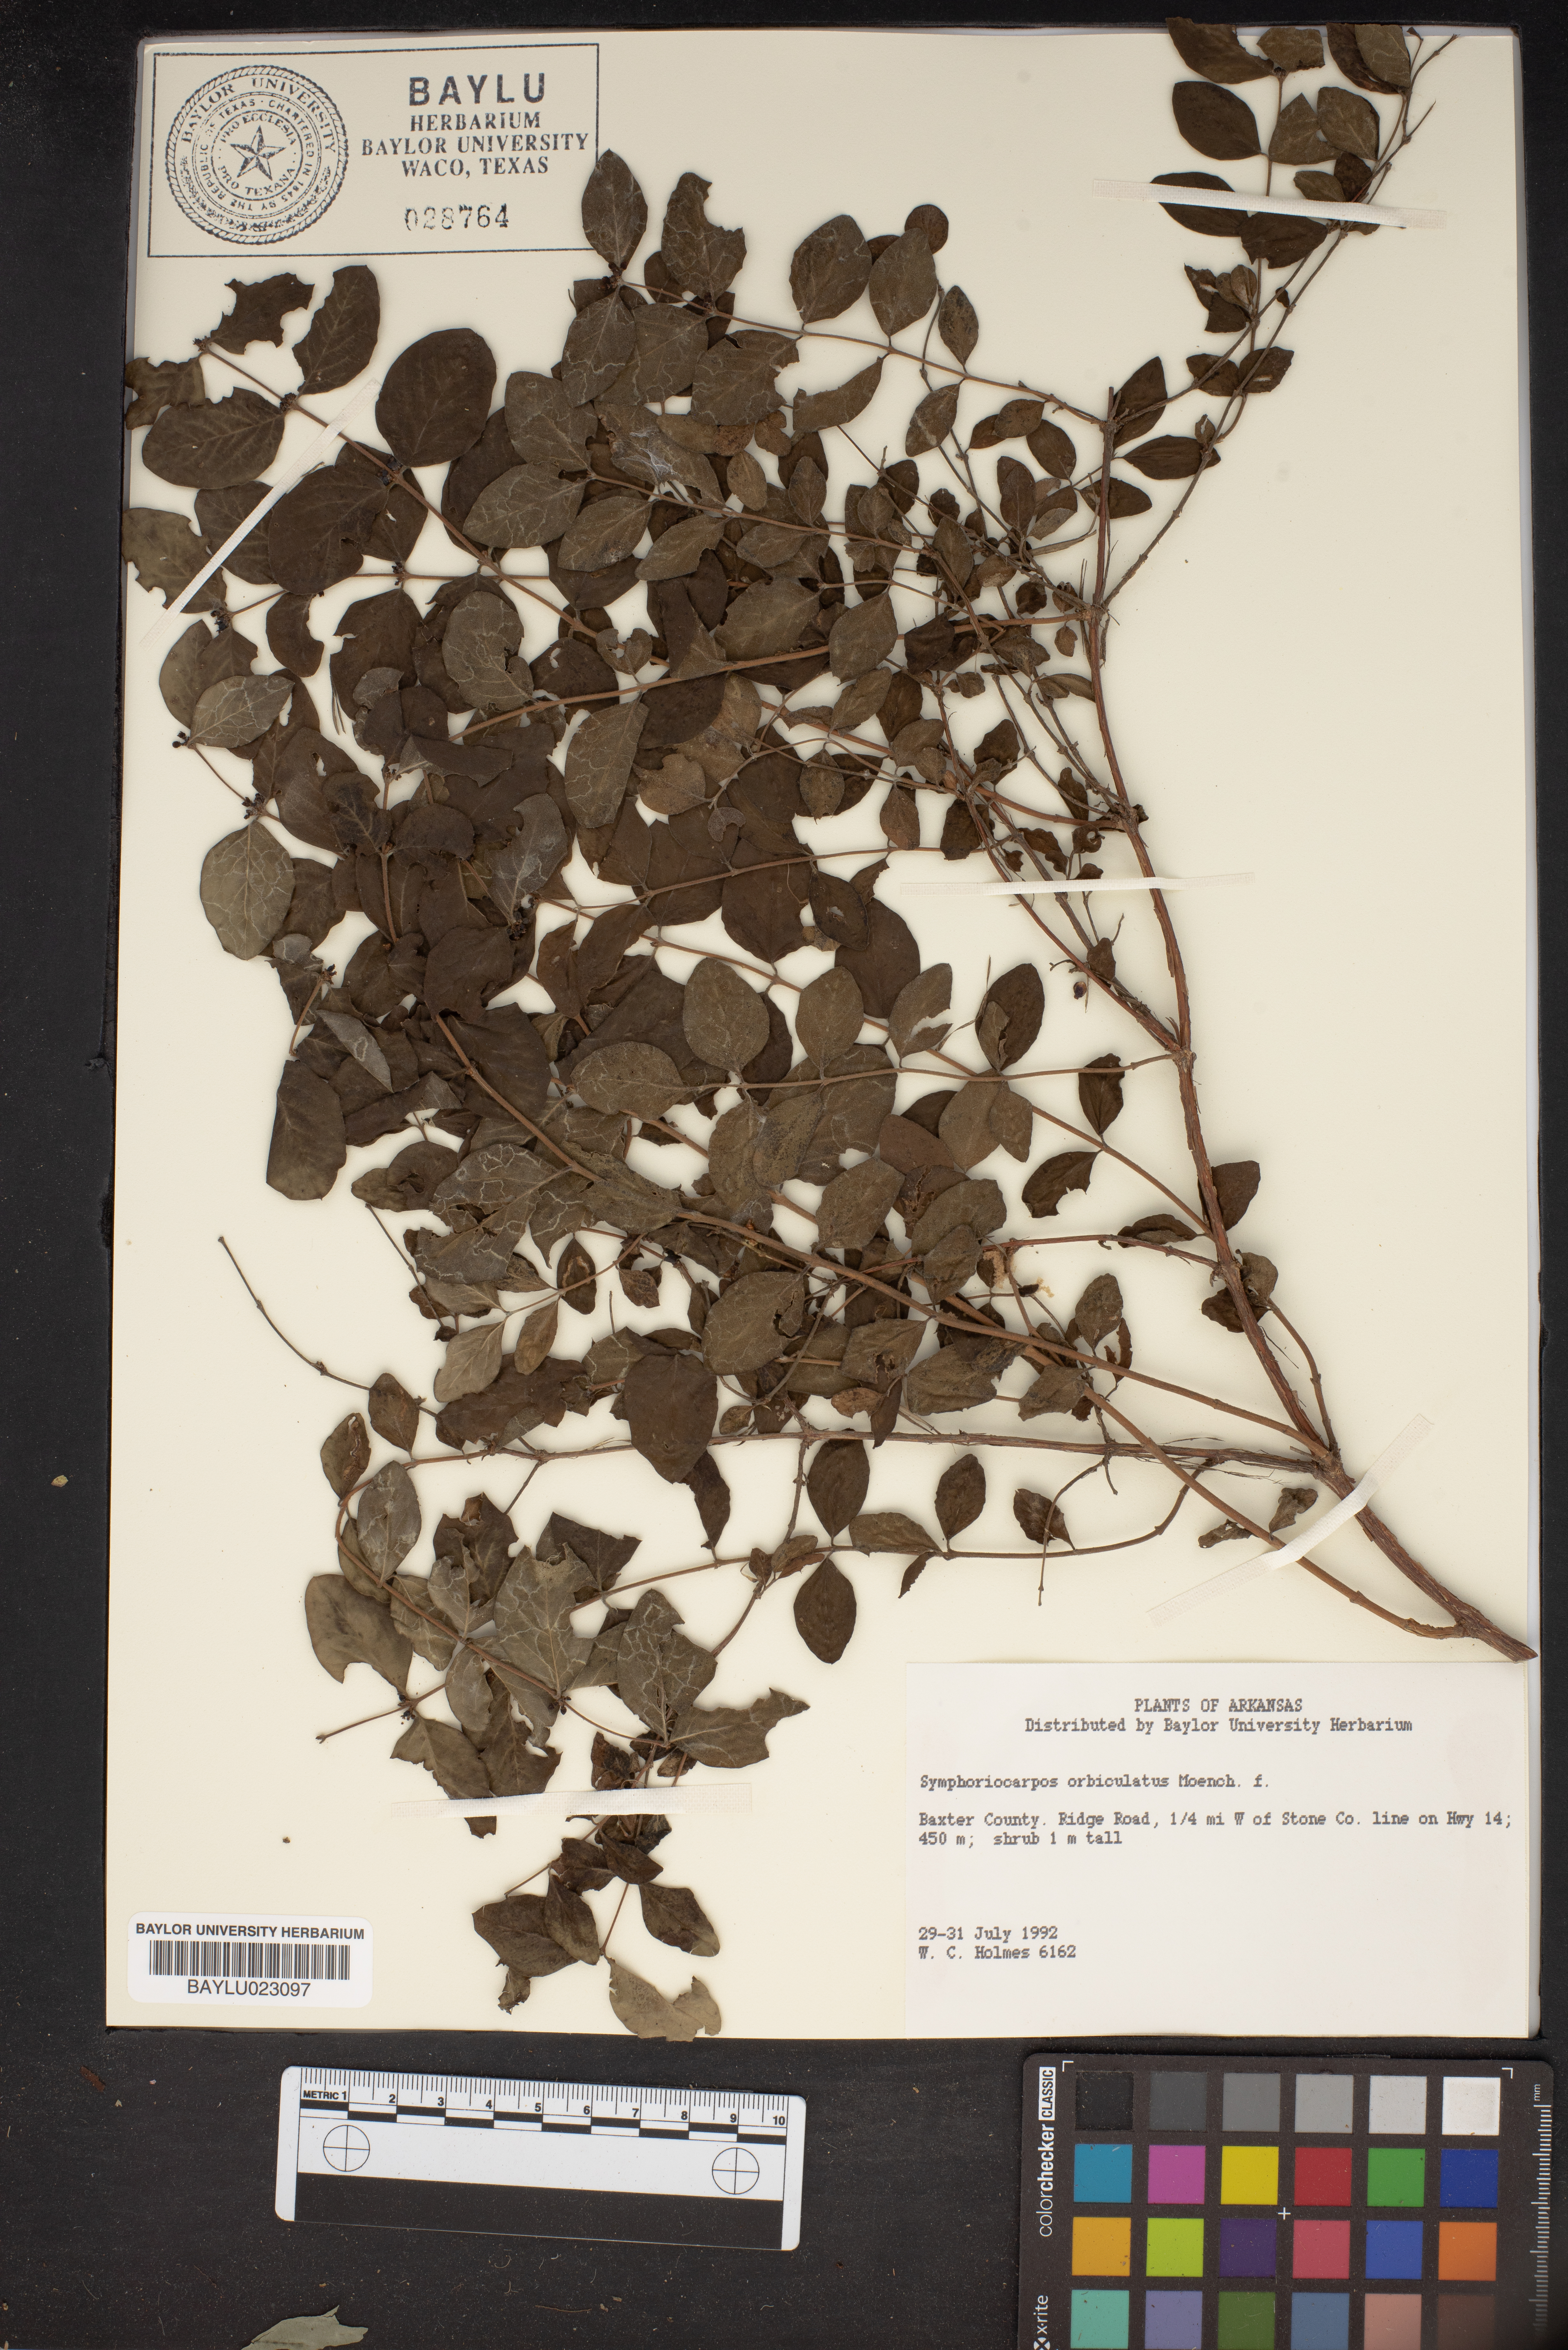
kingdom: Plantae
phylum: Tracheophyta
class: Magnoliopsida
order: Dipsacales
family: Caprifoliaceae
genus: Symphoricarpos
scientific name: Symphoricarpos orbiculatus
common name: Coralberry
